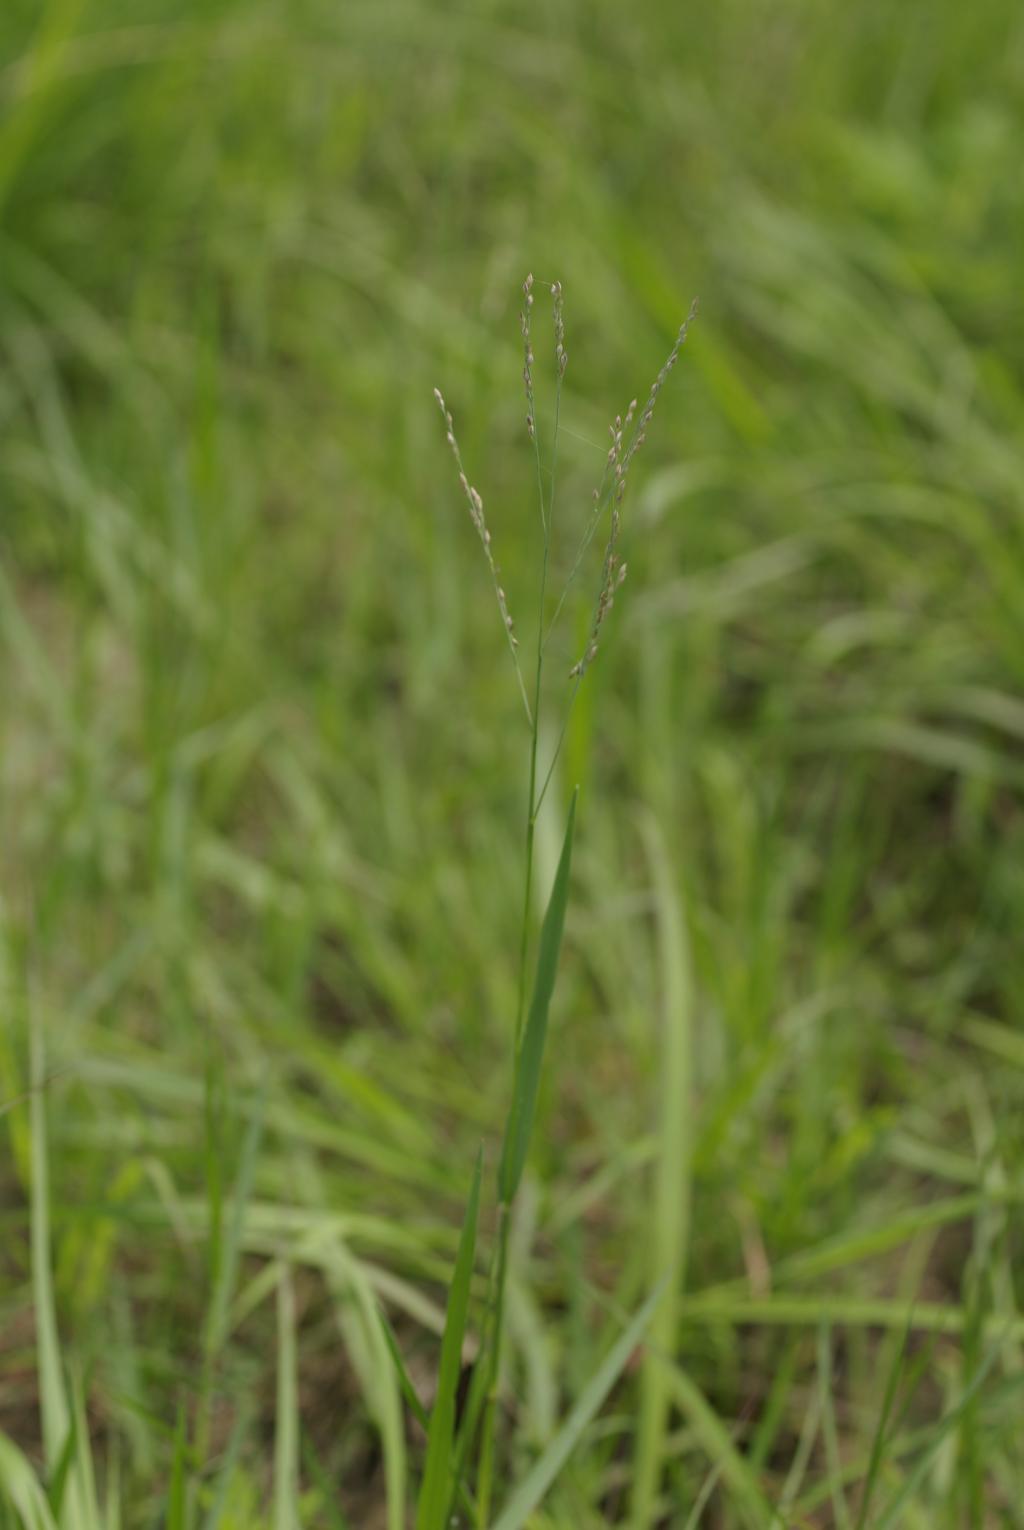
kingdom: Plantae
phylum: Tracheophyta
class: Liliopsida
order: Poales
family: Poaceae
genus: Panicum
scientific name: Panicum repens
